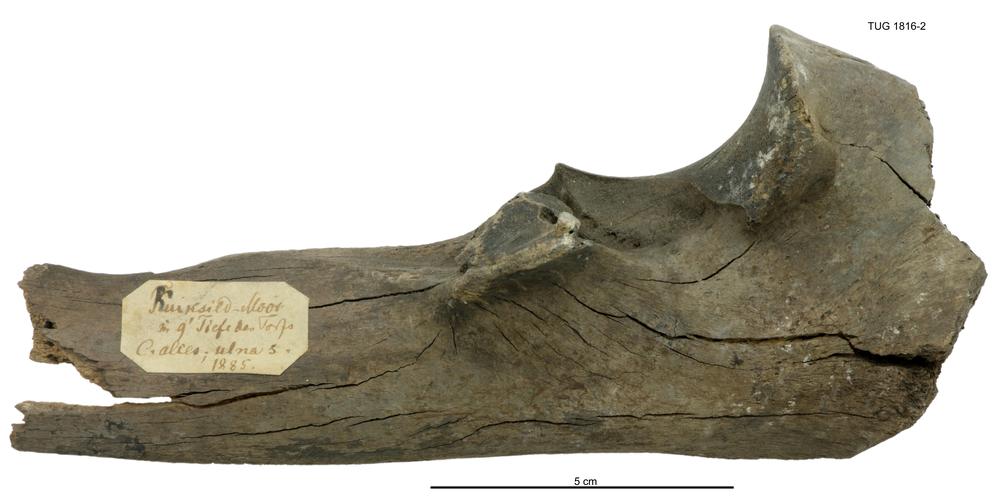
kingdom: Animalia
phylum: Chordata
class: Mammalia
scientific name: Mammalia
